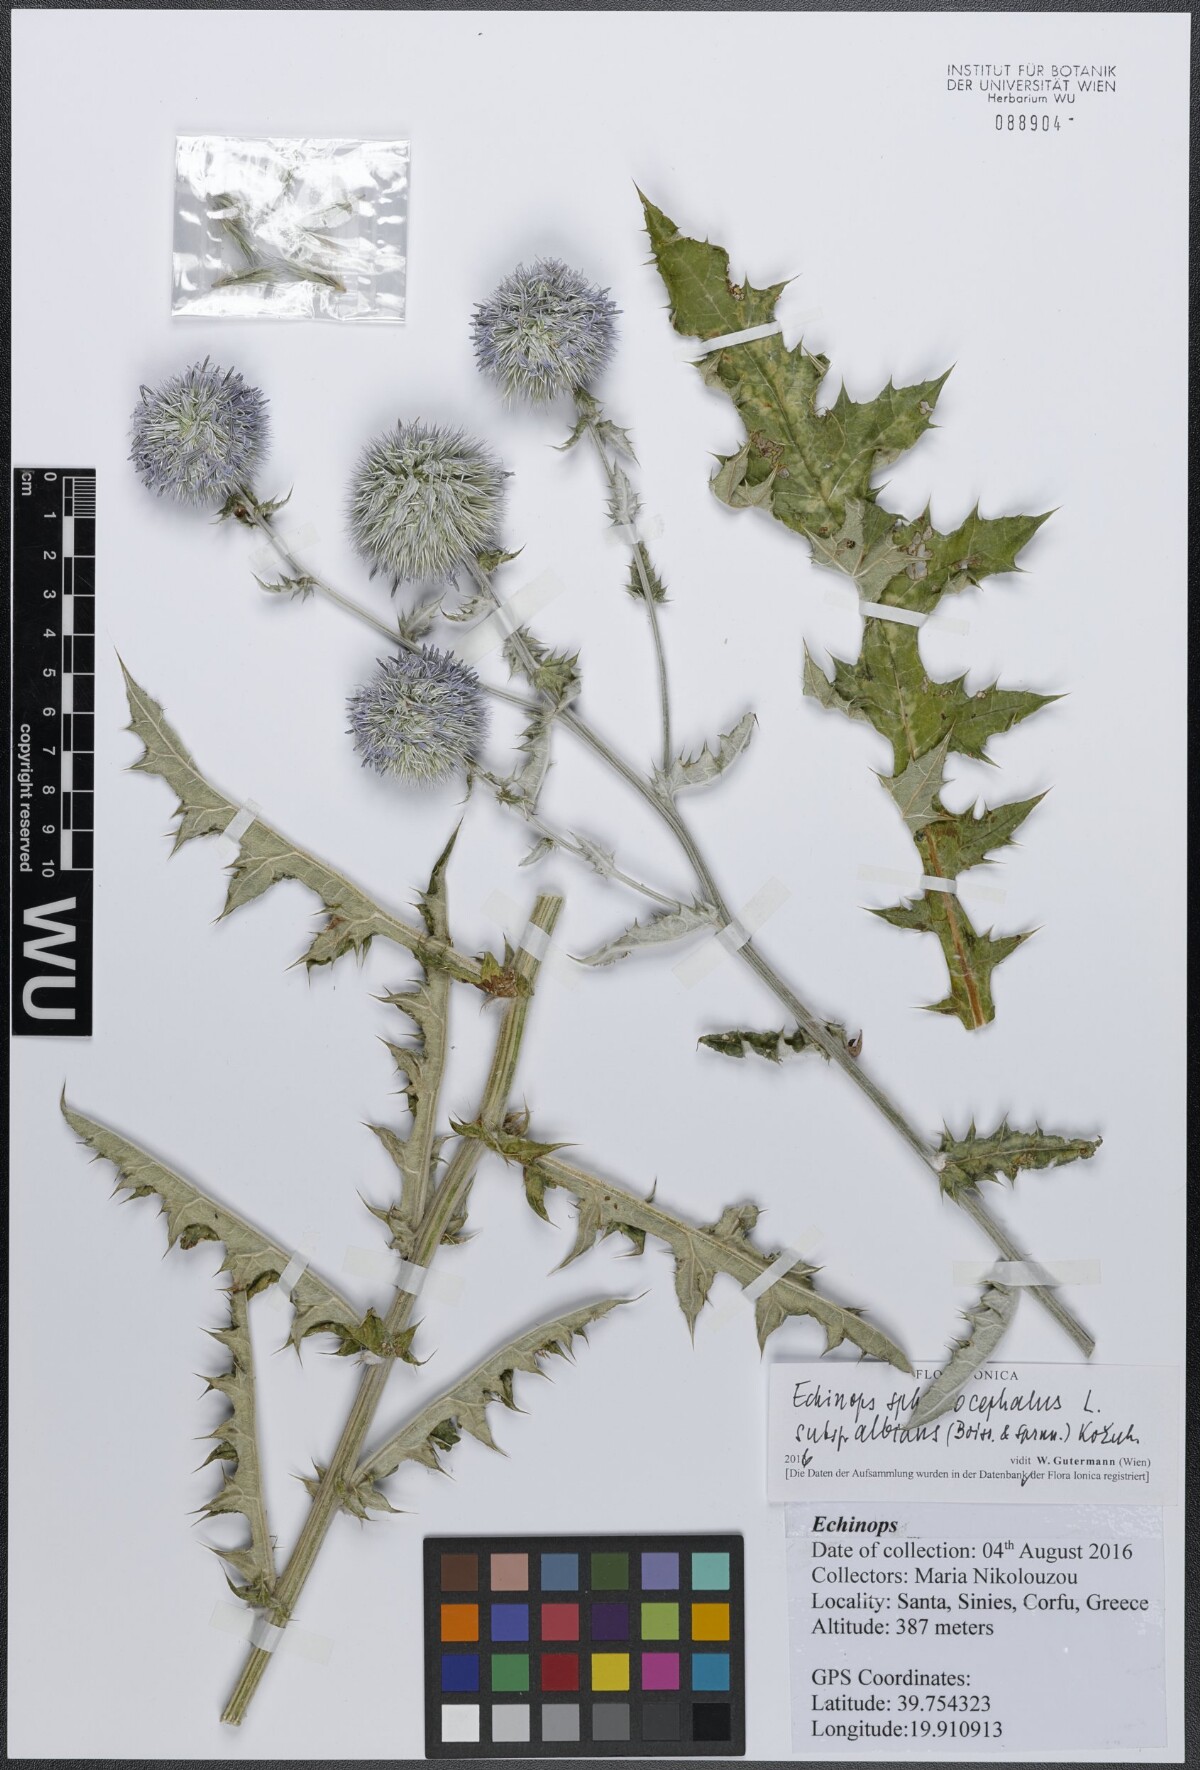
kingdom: Plantae
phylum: Tracheophyta
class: Magnoliopsida
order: Asterales
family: Asteraceae
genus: Echinops
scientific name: Echinops ritro
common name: Globe thistle
